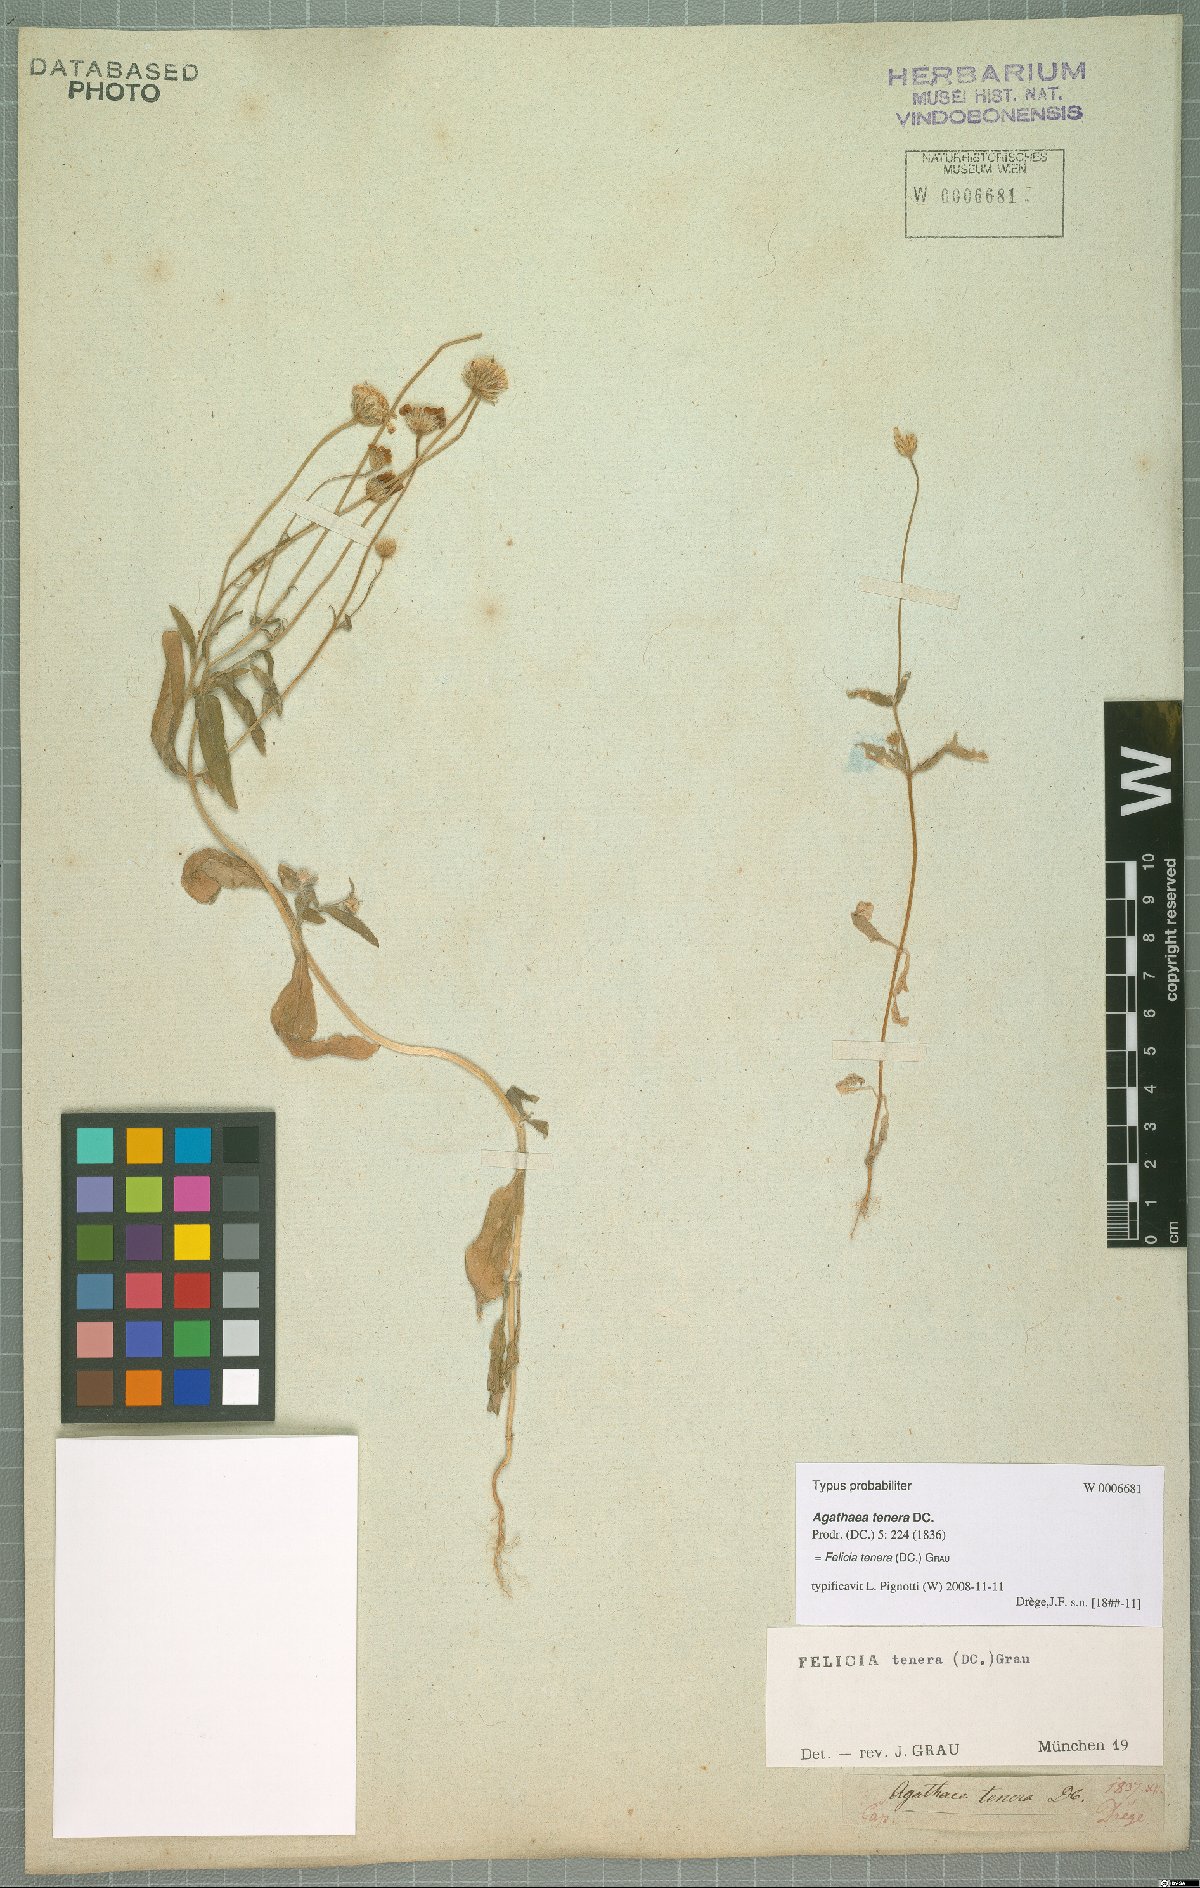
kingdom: Plantae
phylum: Tracheophyta
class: Magnoliopsida
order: Asterales
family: Asteraceae
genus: Felicia
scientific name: Felicia tenera
